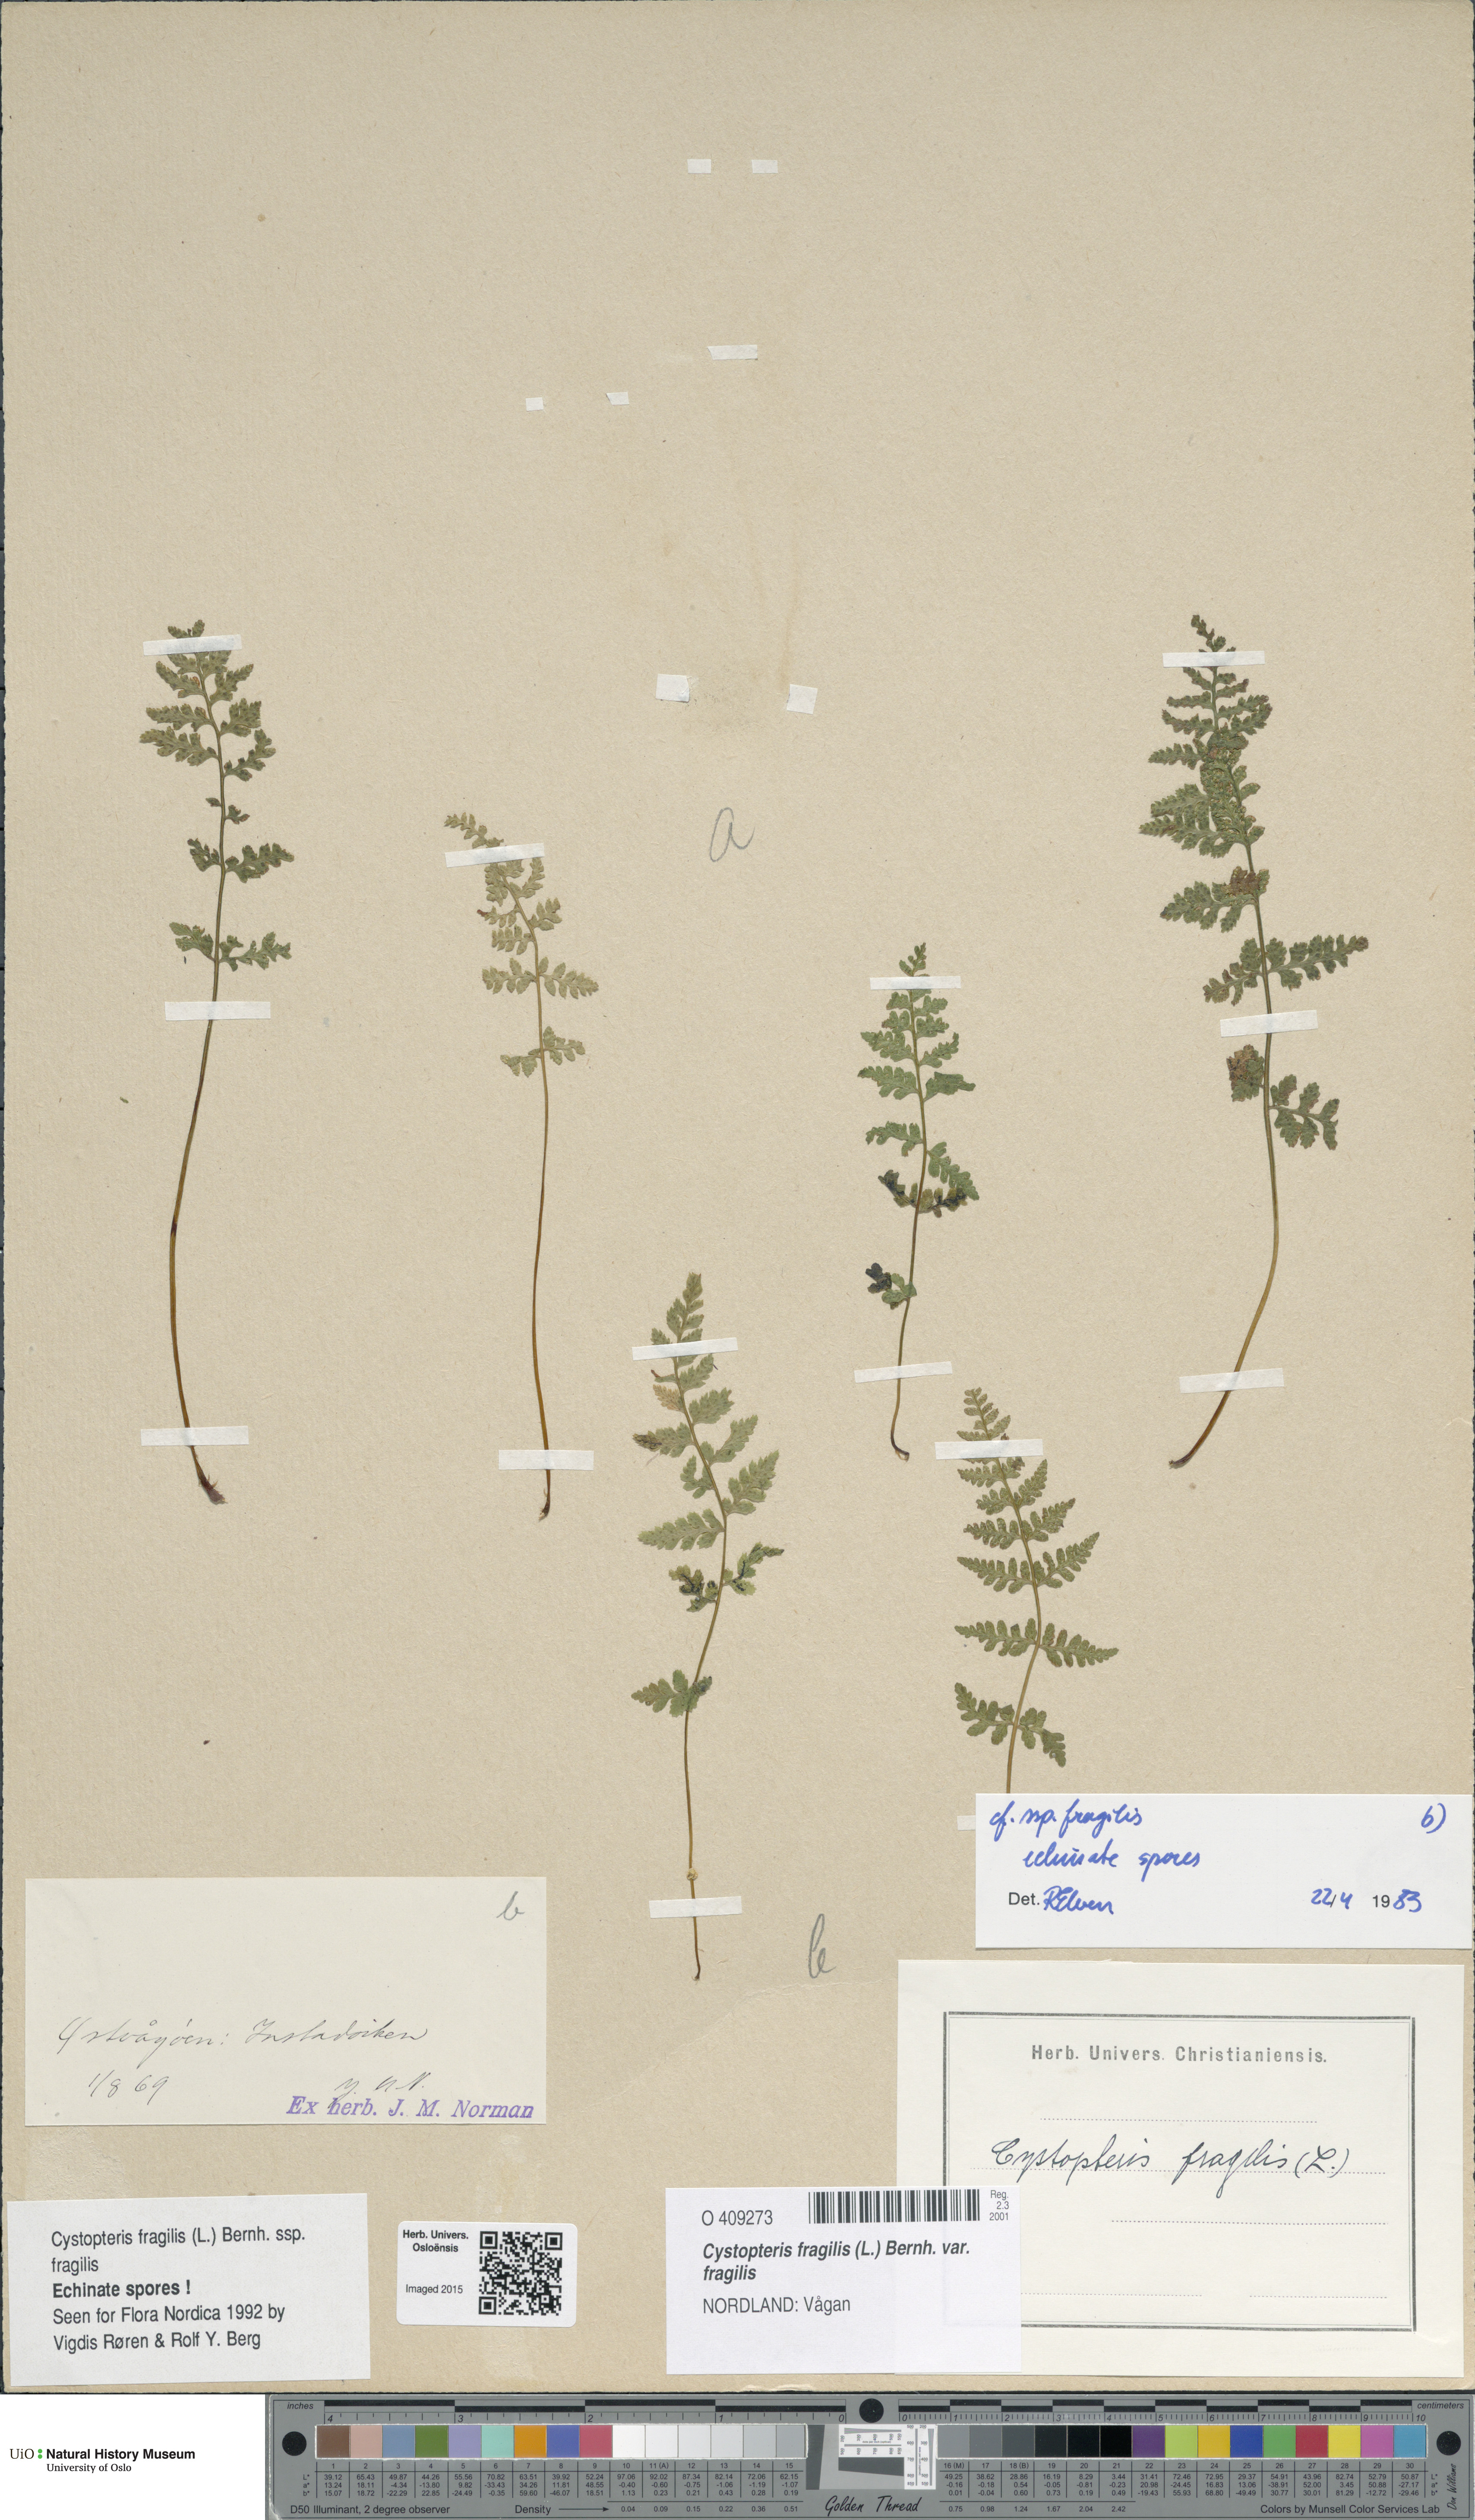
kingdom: Plantae
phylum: Tracheophyta
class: Polypodiopsida
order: Polypodiales
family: Cystopteridaceae
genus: Cystopteris
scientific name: Cystopteris fragilis
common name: Brittle bladder fern
